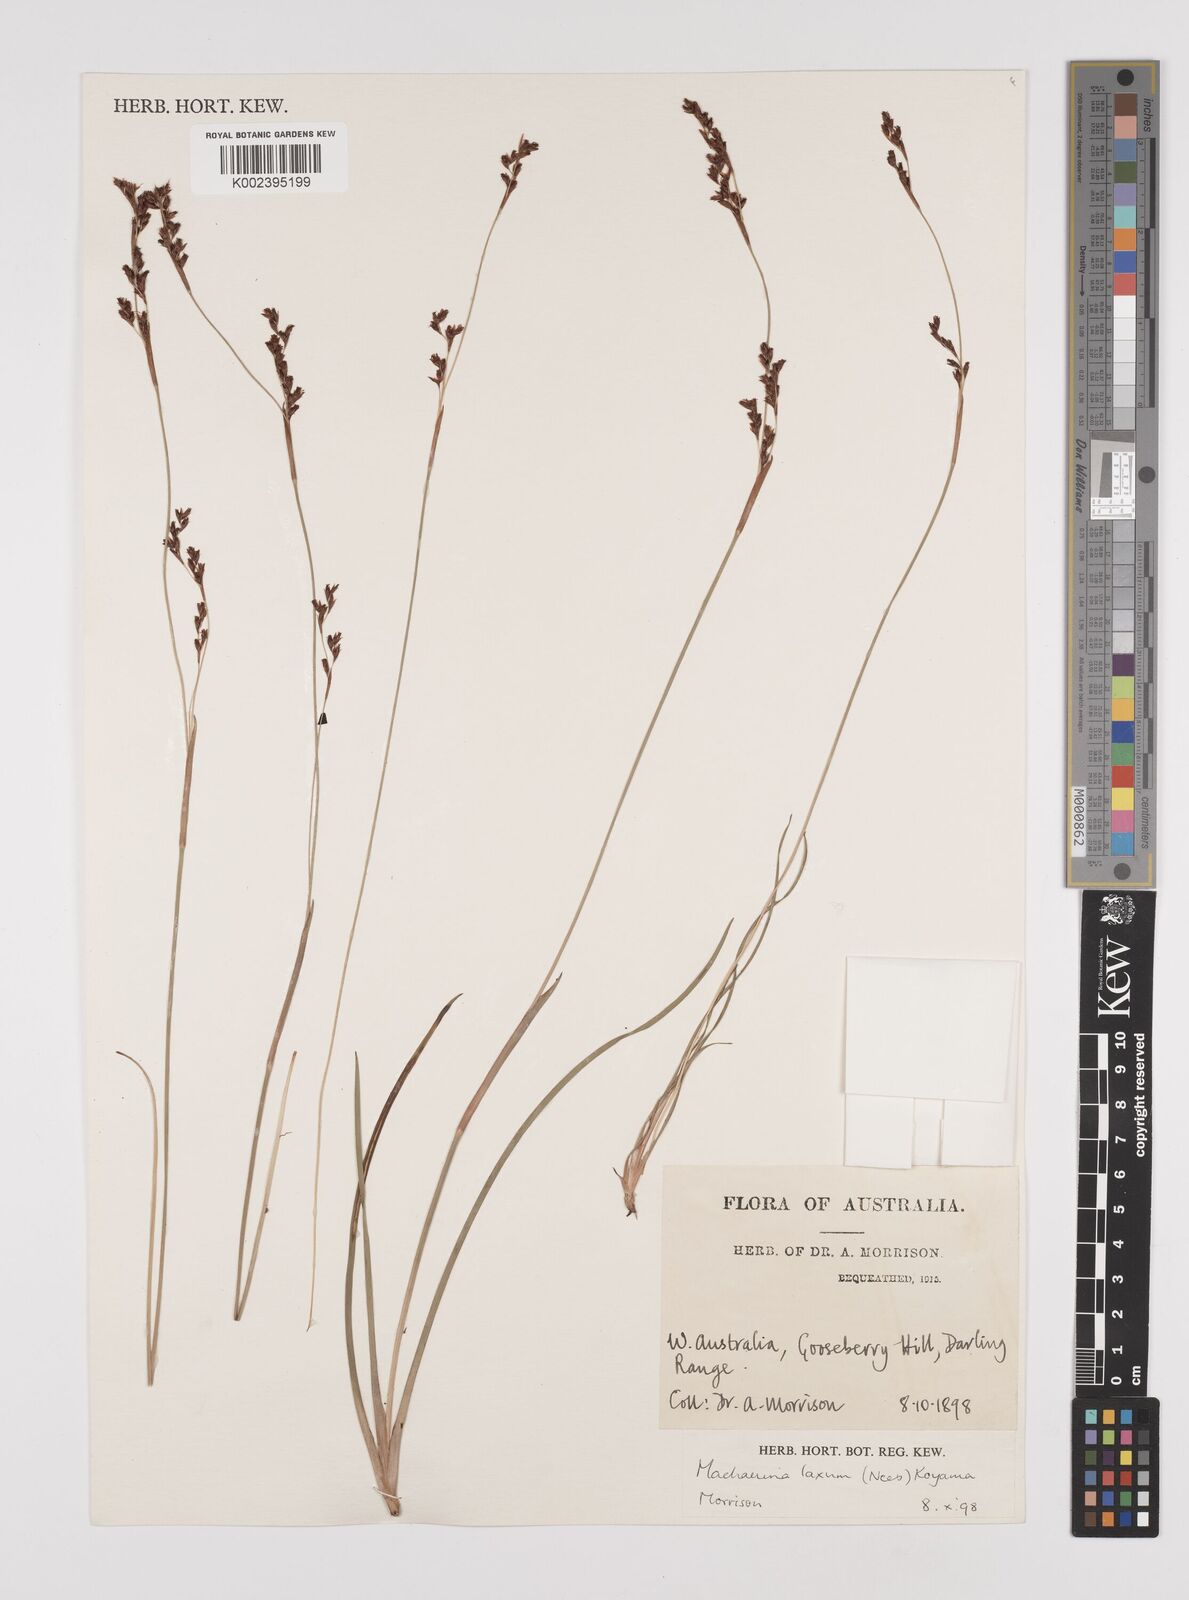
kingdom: Plantae
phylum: Tracheophyta
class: Liliopsida
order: Poales
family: Cyperaceae
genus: Machaerina
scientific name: Machaerina laxa
